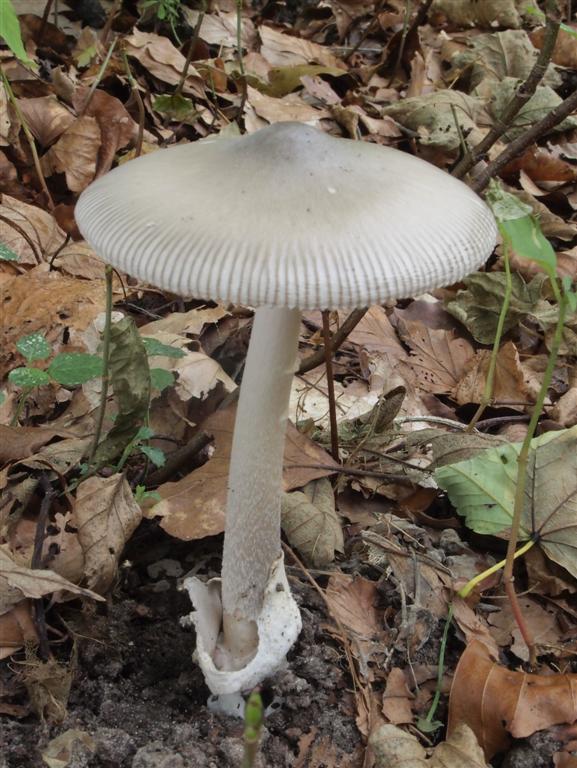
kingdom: Fungi
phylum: Basidiomycota
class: Agaricomycetes
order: Agaricales
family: Amanitaceae
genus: Amanita
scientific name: Amanita vaginata
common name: grå kam-fluesvamp
